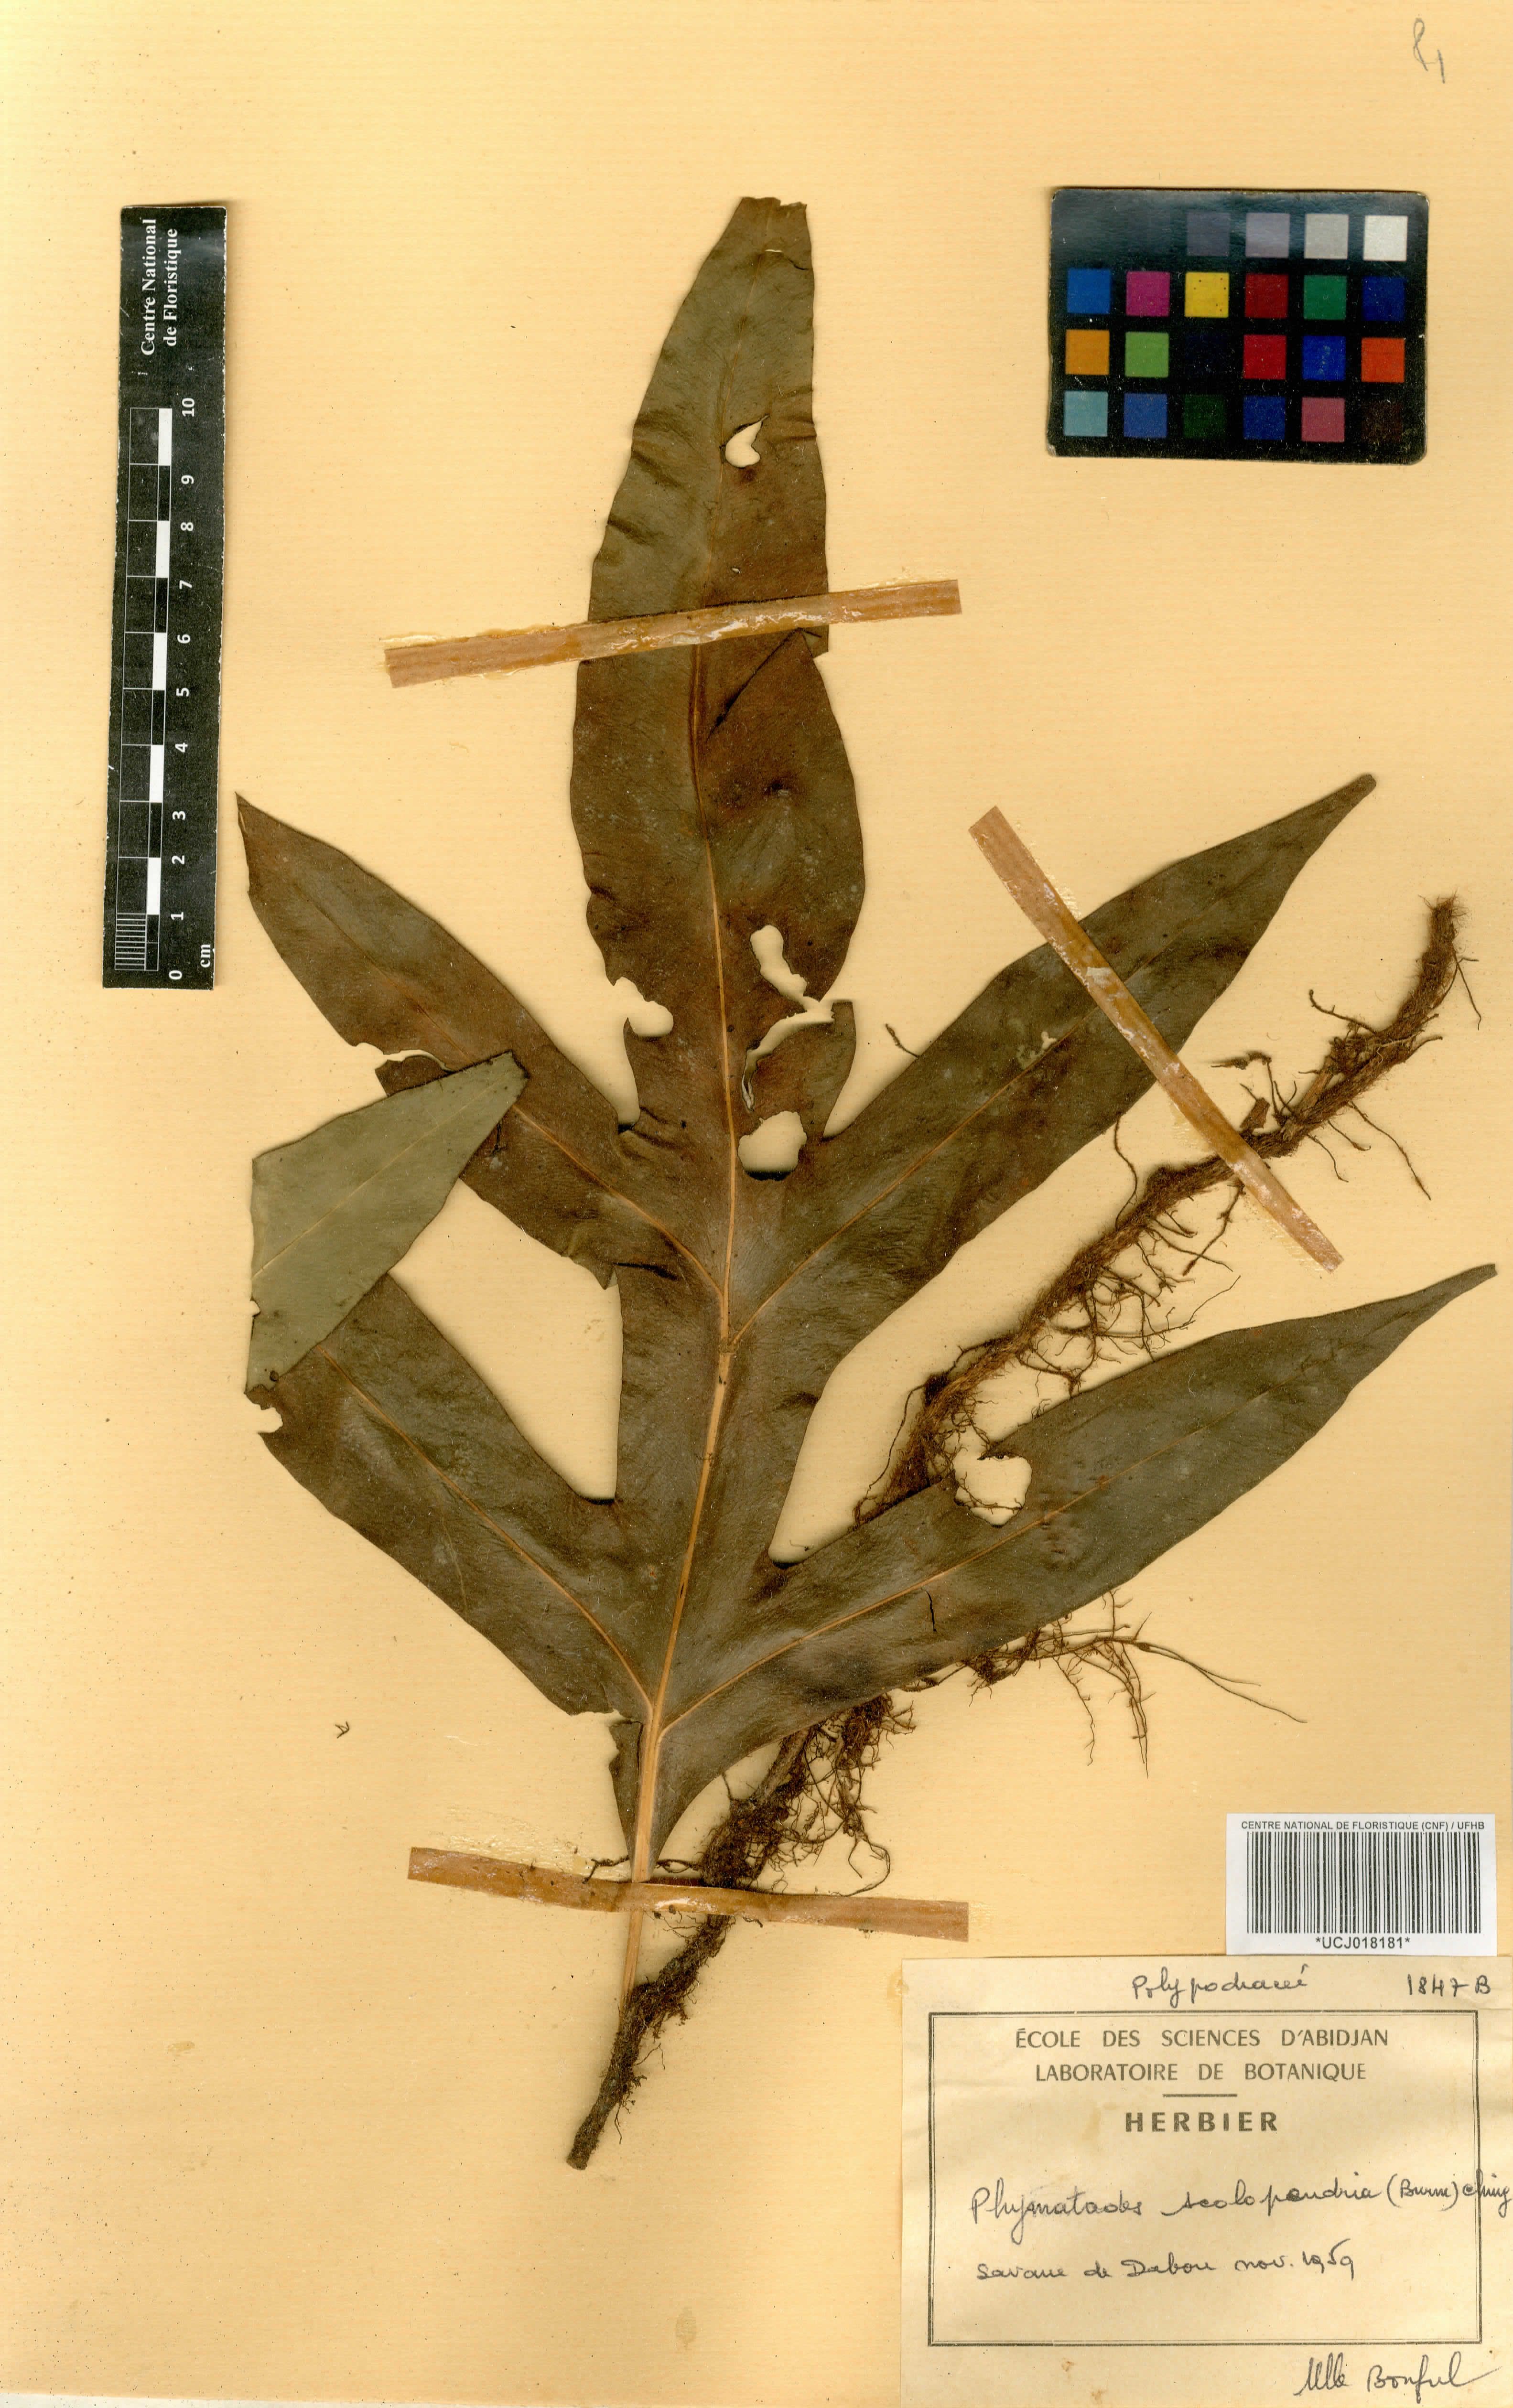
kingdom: Plantae
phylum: Tracheophyta
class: Polypodiopsida
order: Polypodiales
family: Polypodiaceae
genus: Microsorum
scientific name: Microsorum scolopendria
